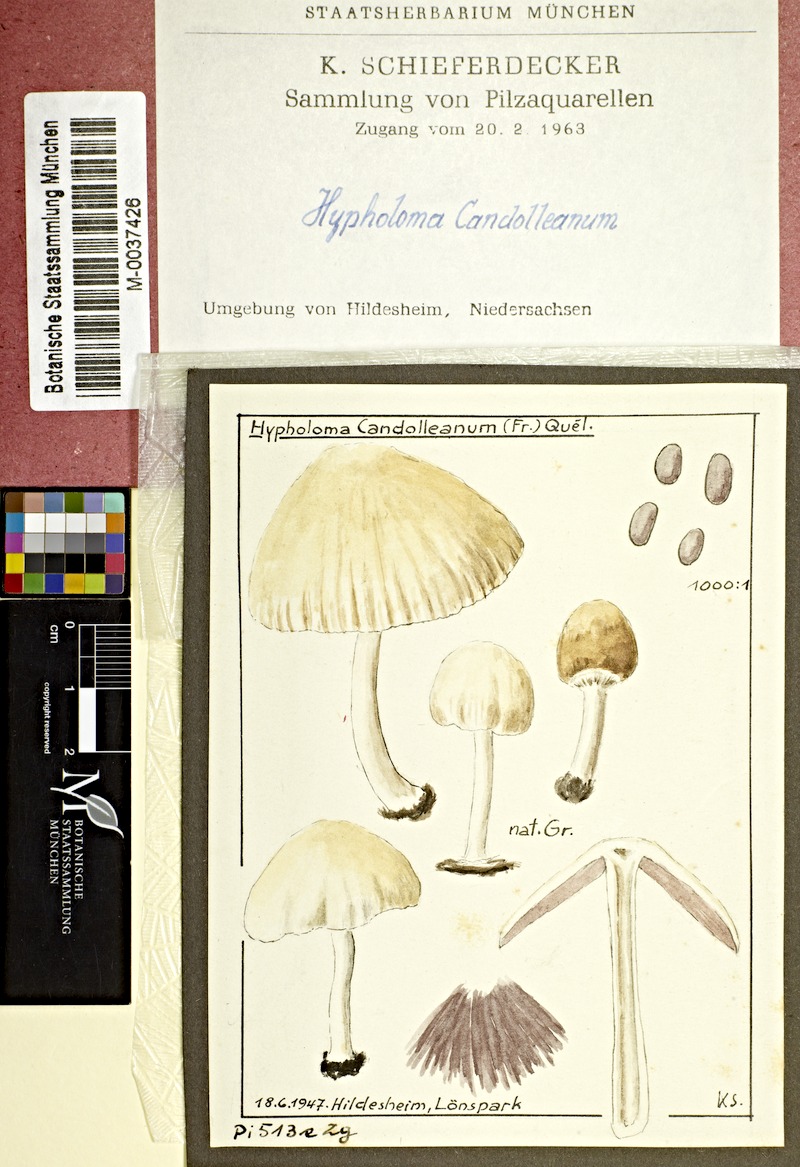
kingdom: Fungi
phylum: Basidiomycota
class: Agaricomycetes
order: Agaricales
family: Psathyrellaceae
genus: Candolleomyces
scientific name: Candolleomyces candolleanus
